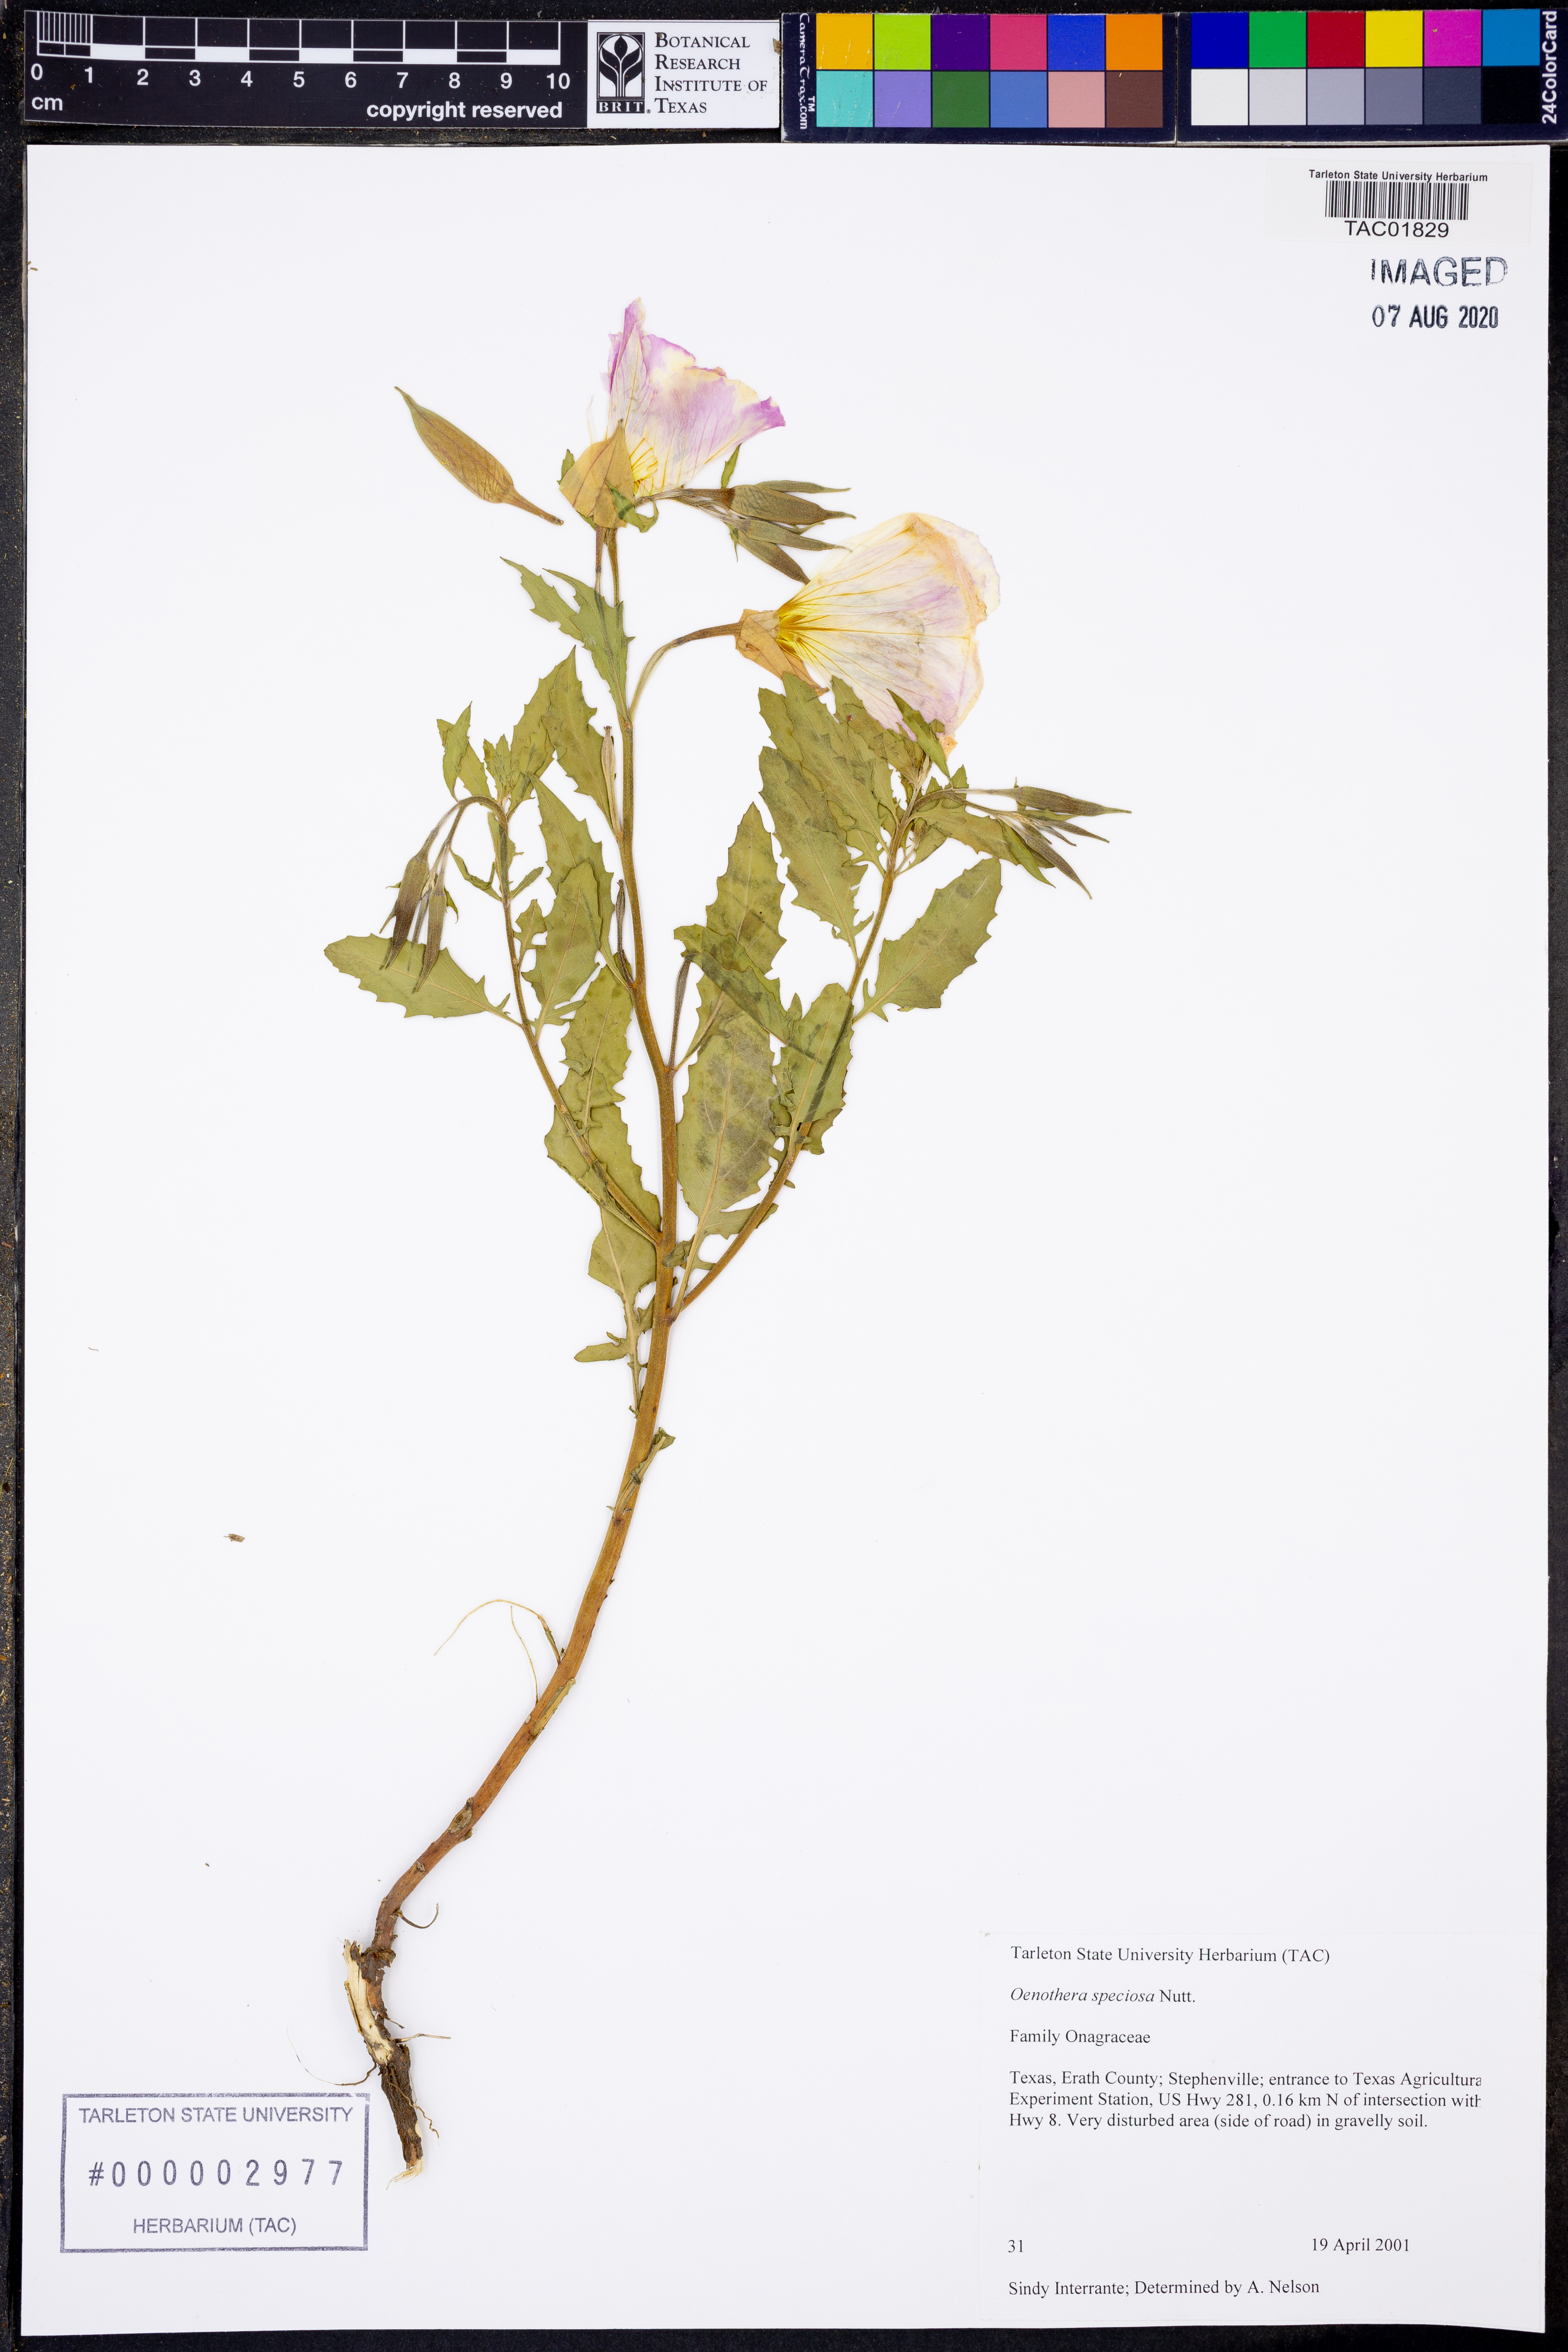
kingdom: Plantae
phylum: Tracheophyta
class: Magnoliopsida
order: Myrtales
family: Onagraceae
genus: Oenothera
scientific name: Oenothera speciosa
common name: White evening-primrose
